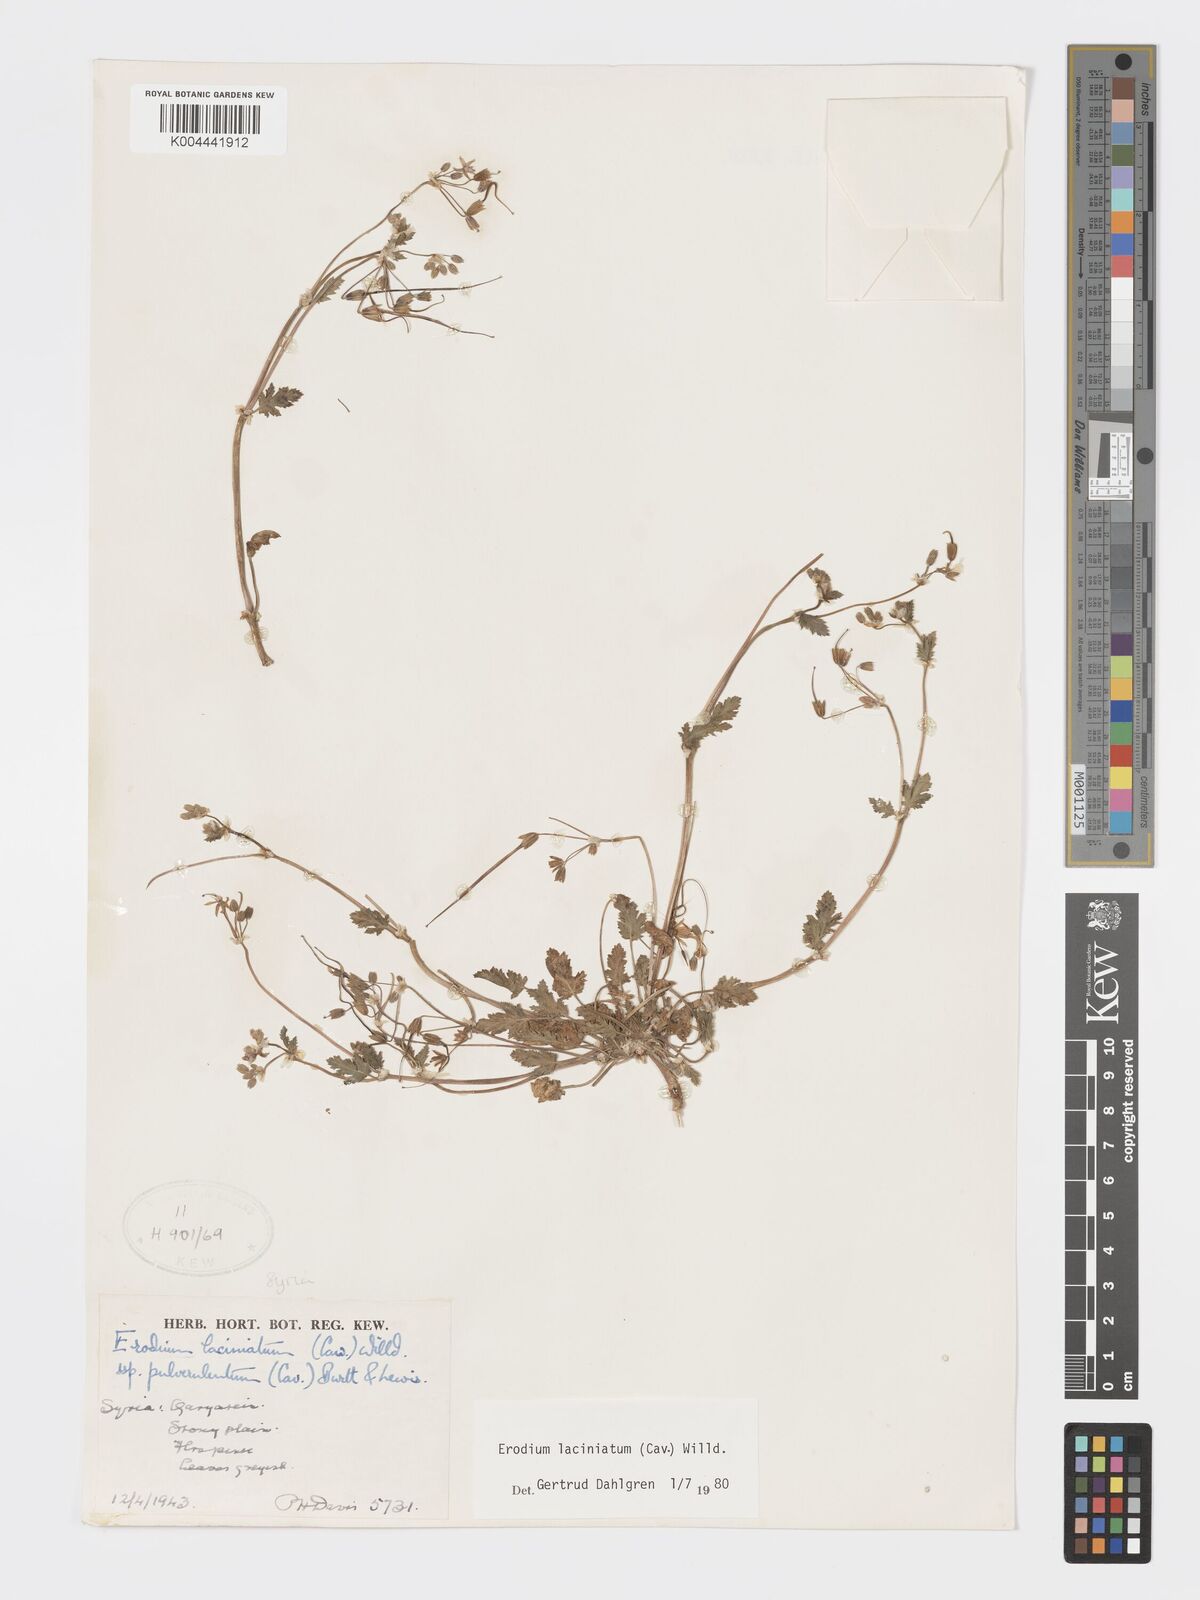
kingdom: Plantae
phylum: Tracheophyta
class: Magnoliopsida
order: Geraniales
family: Geraniaceae
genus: Erodium
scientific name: Erodium laciniatum
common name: Cutleaf stork's bill
